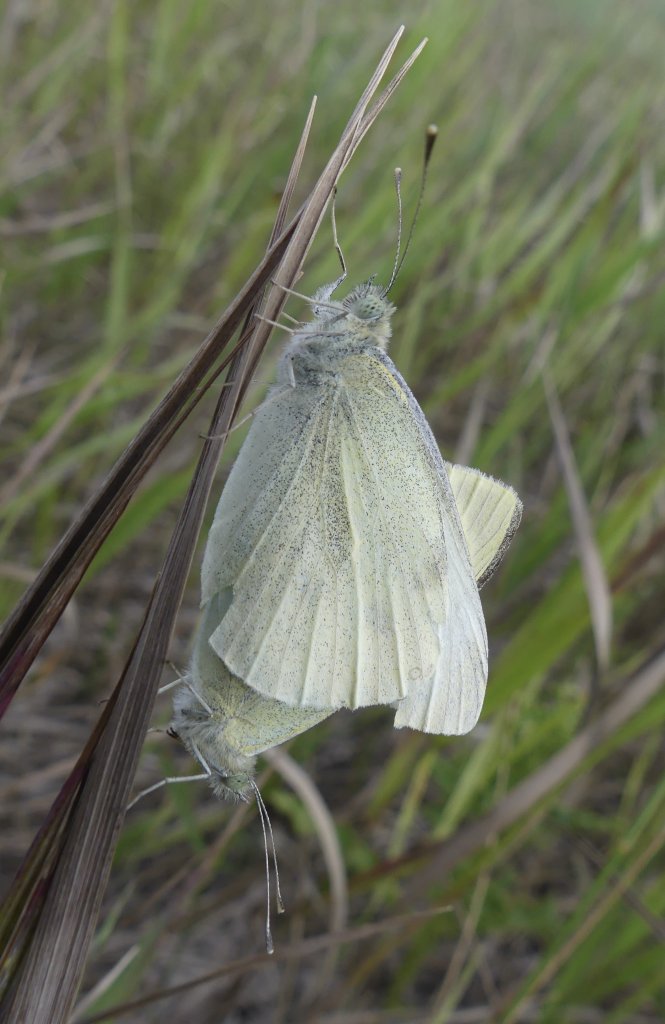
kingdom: Animalia
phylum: Arthropoda
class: Insecta
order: Lepidoptera
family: Pieridae
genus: Pieris
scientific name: Pieris rapae
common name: Cabbage White
